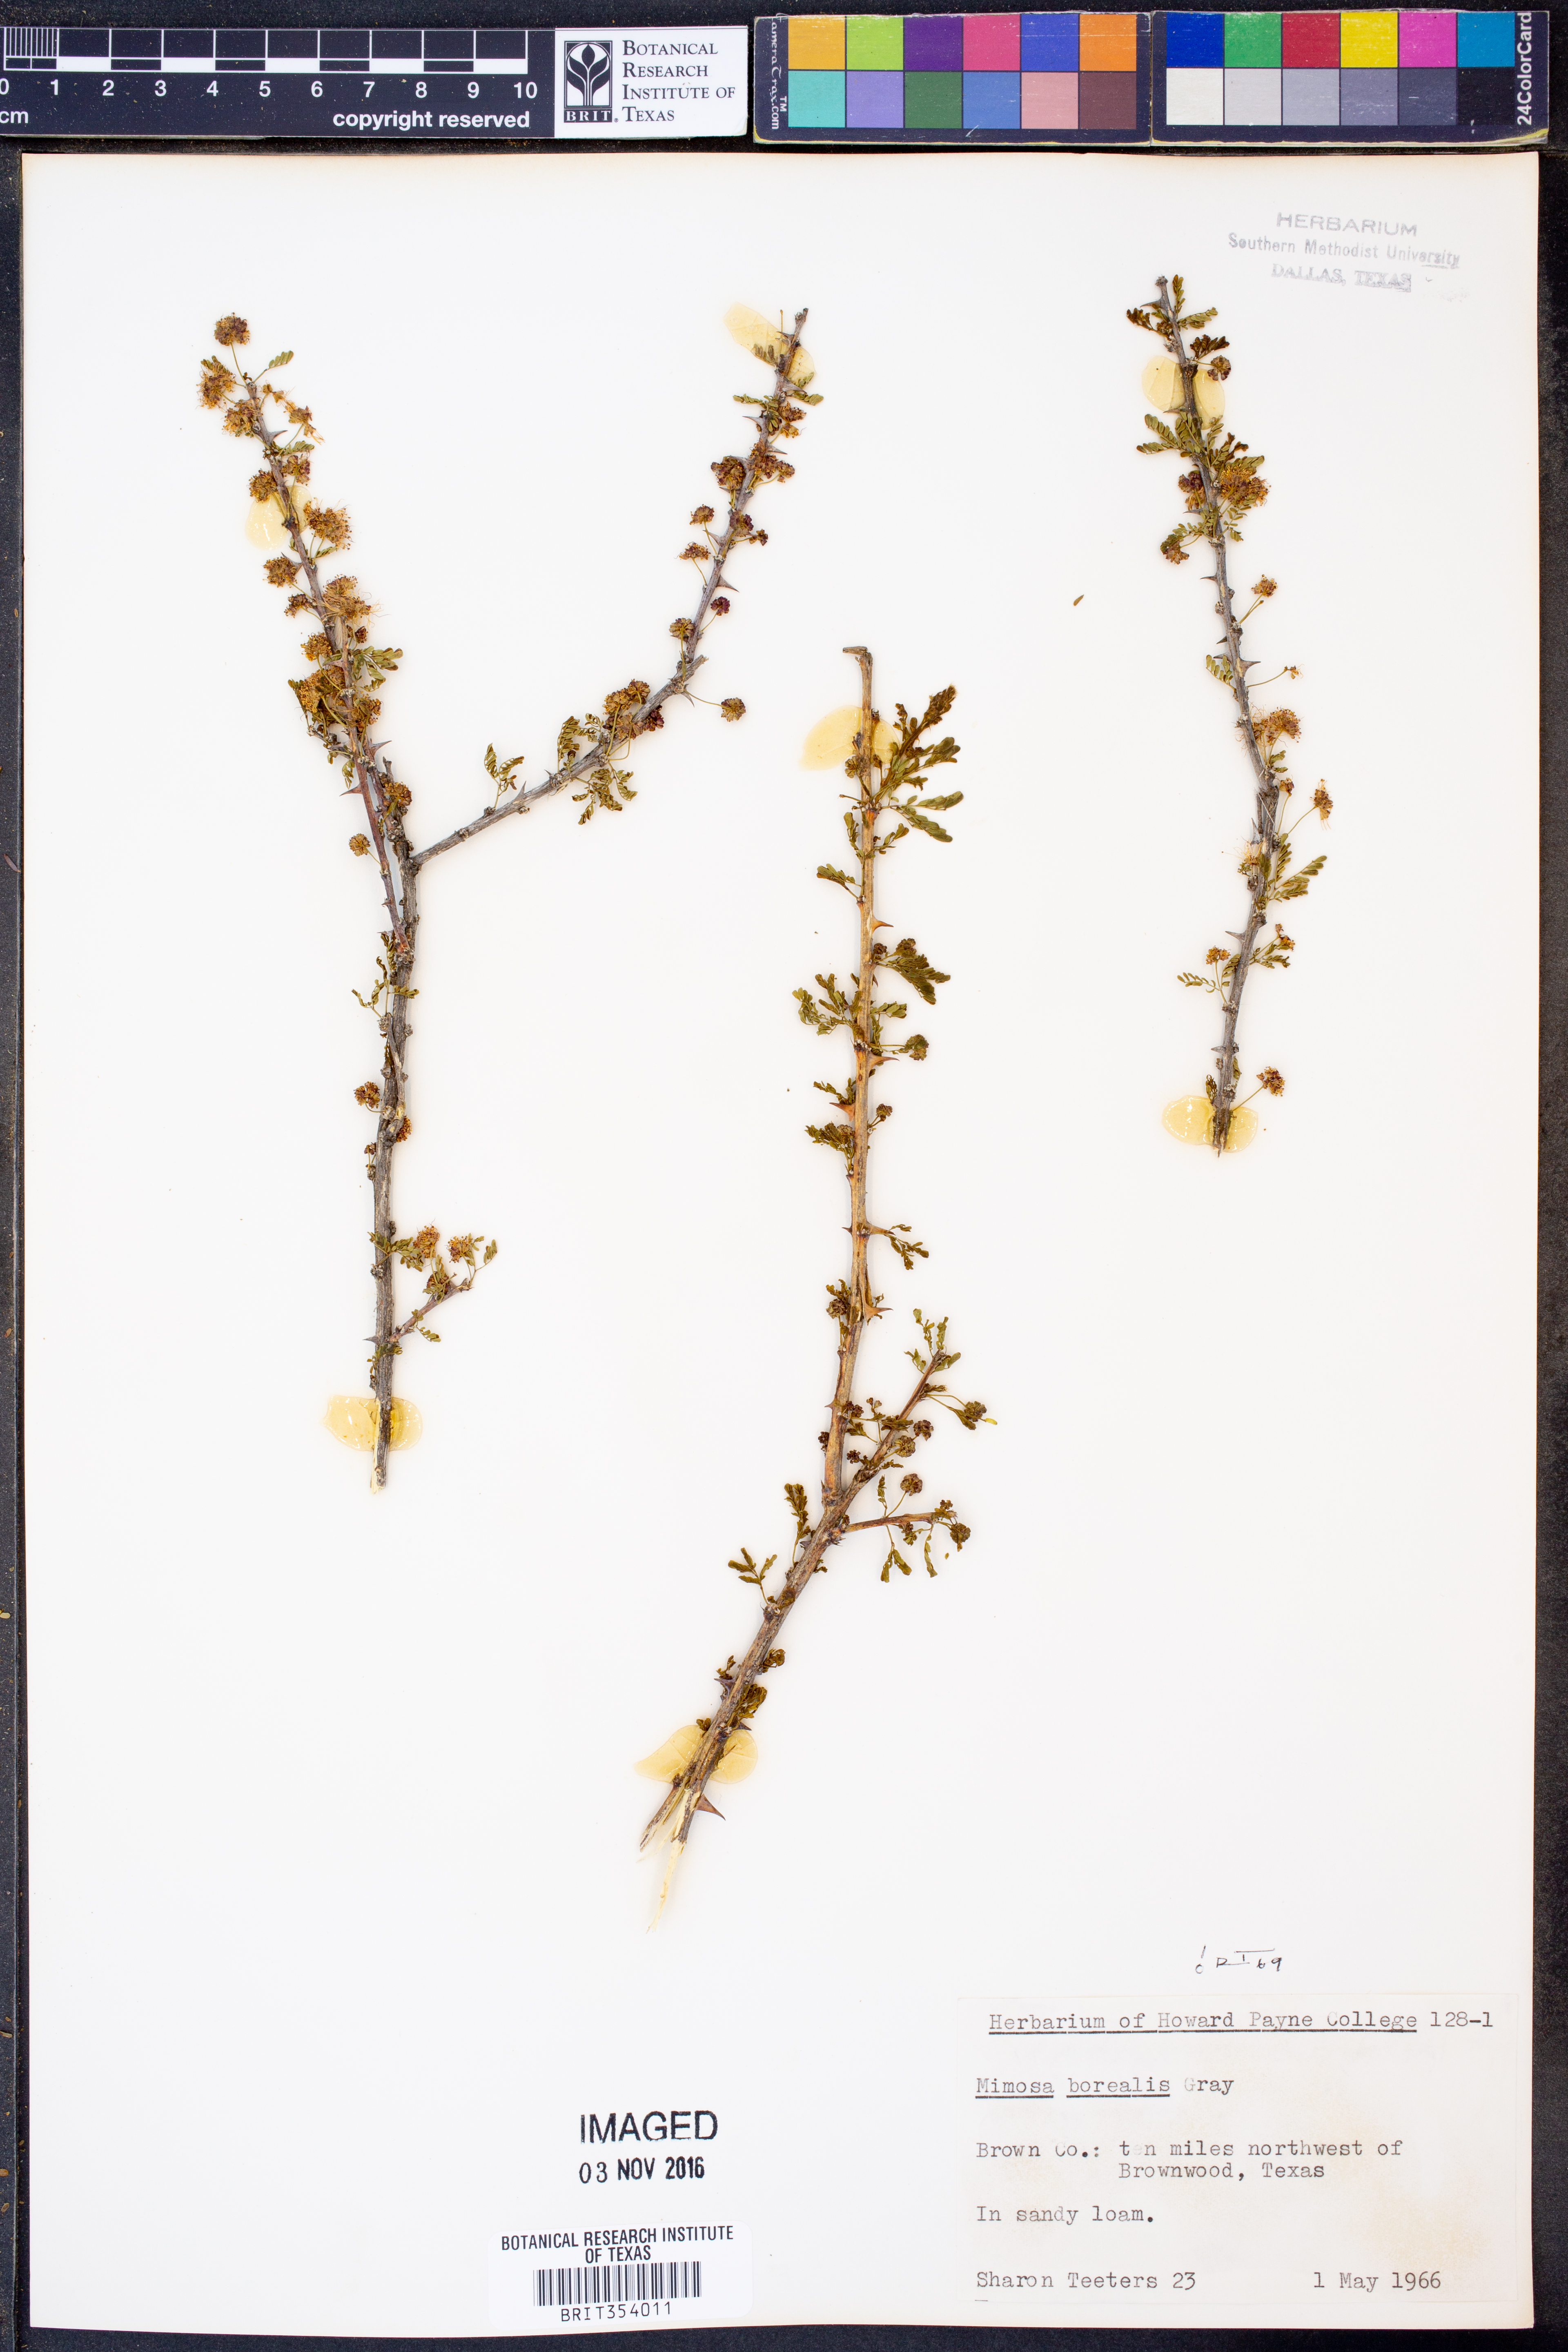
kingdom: Plantae
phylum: Tracheophyta
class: Magnoliopsida
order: Fabales
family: Fabaceae
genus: Mimosa
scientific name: Mimosa borealis
